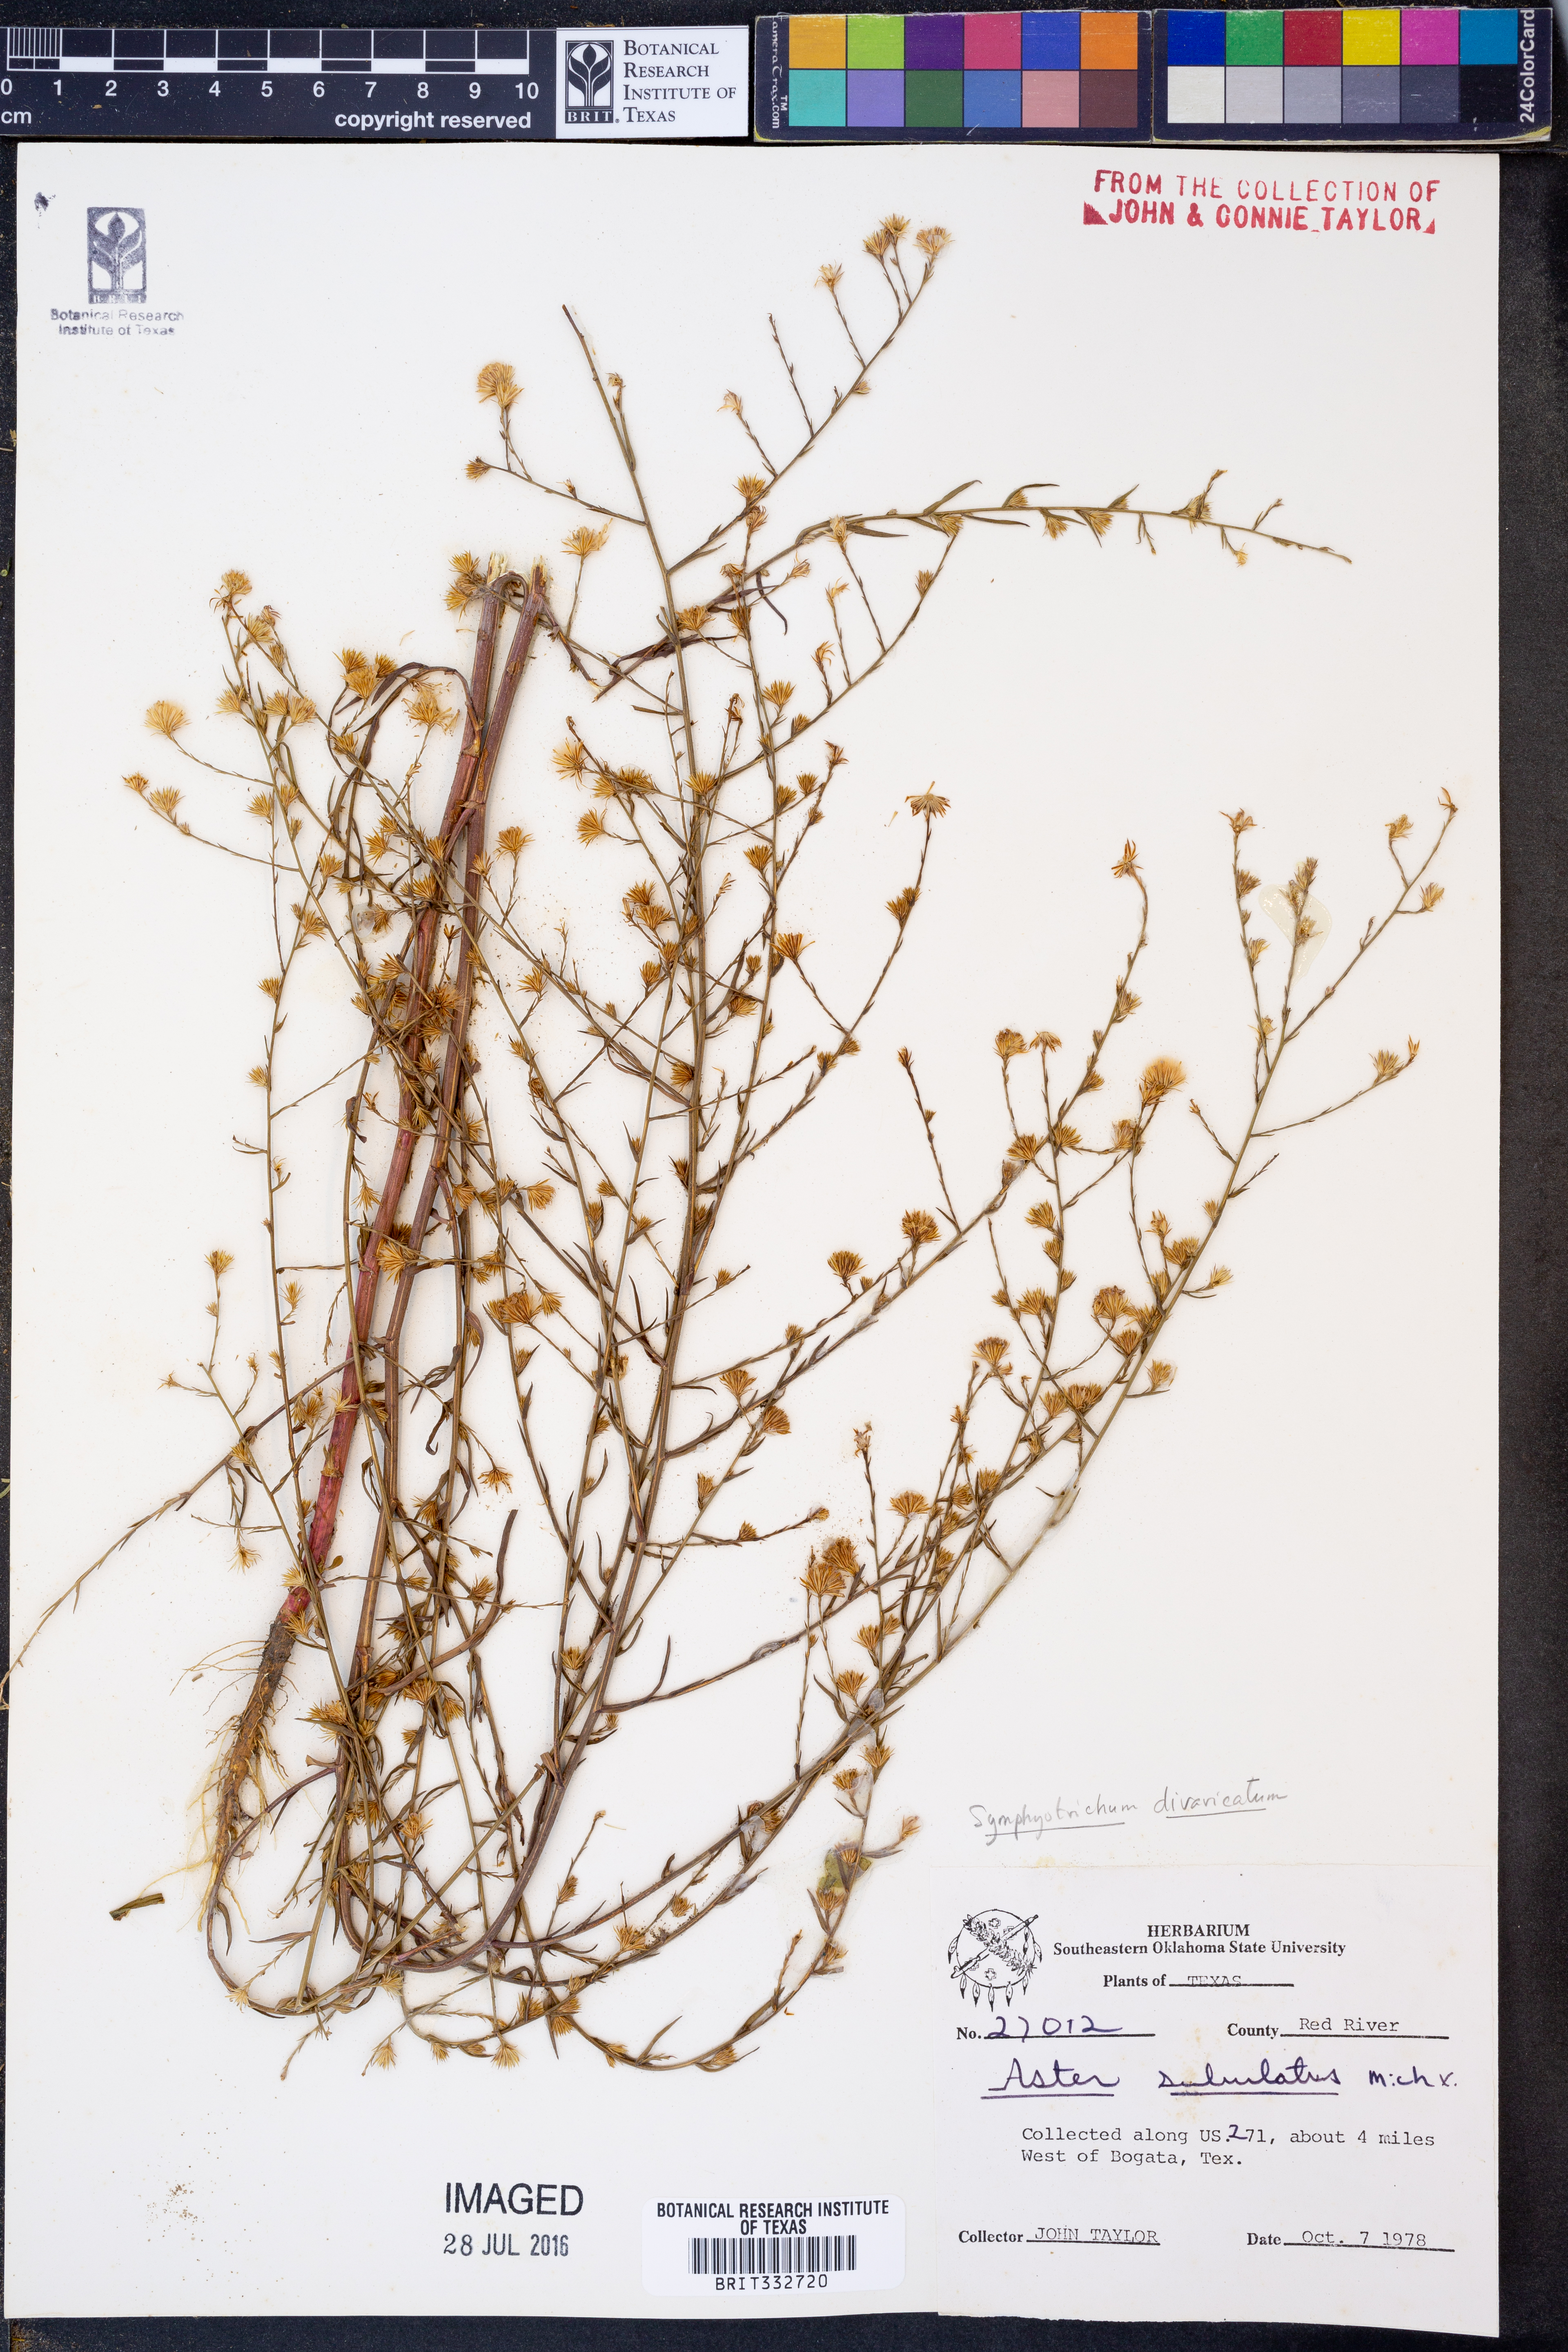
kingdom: Plantae
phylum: Tracheophyta
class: Magnoliopsida
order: Asterales
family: Asteraceae
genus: Symphyotrichum
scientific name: Symphyotrichum divaricatum
